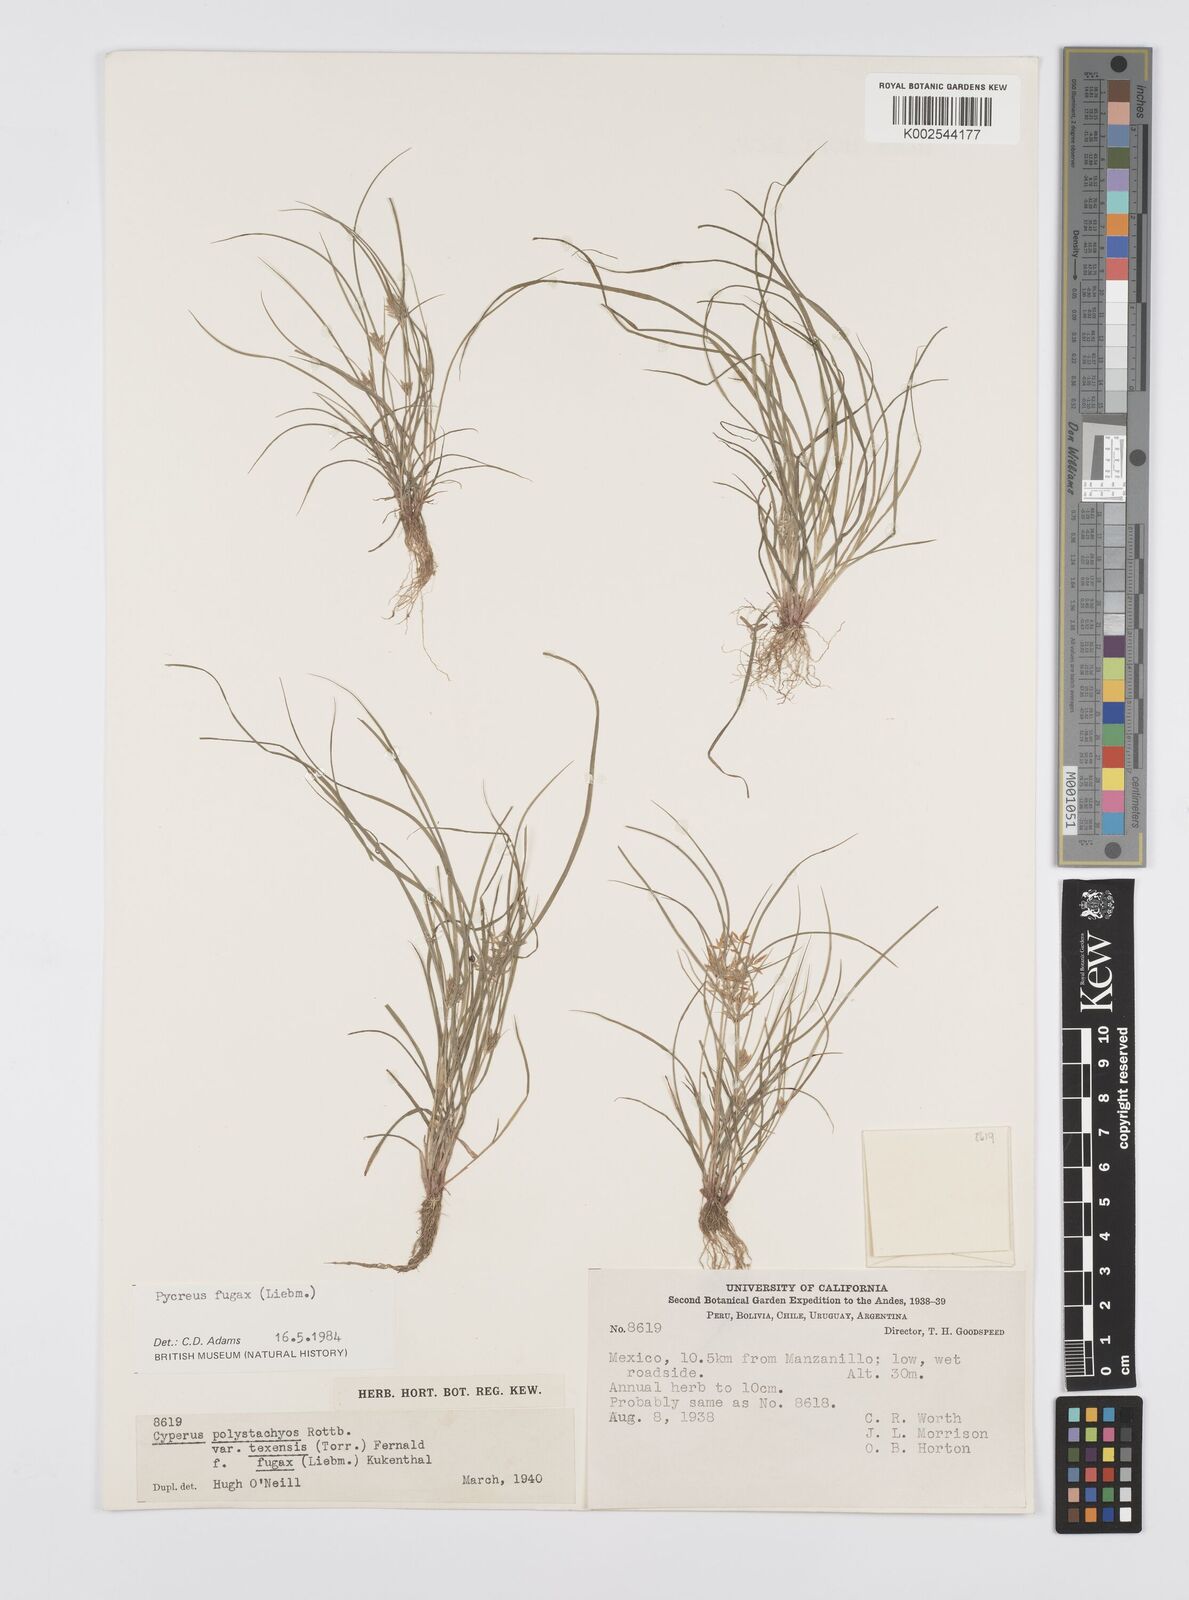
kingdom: Plantae
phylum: Tracheophyta
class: Liliopsida
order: Poales
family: Cyperaceae
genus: Cyperus
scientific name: Cyperus polystachyos
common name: Bunchy flat sedge
